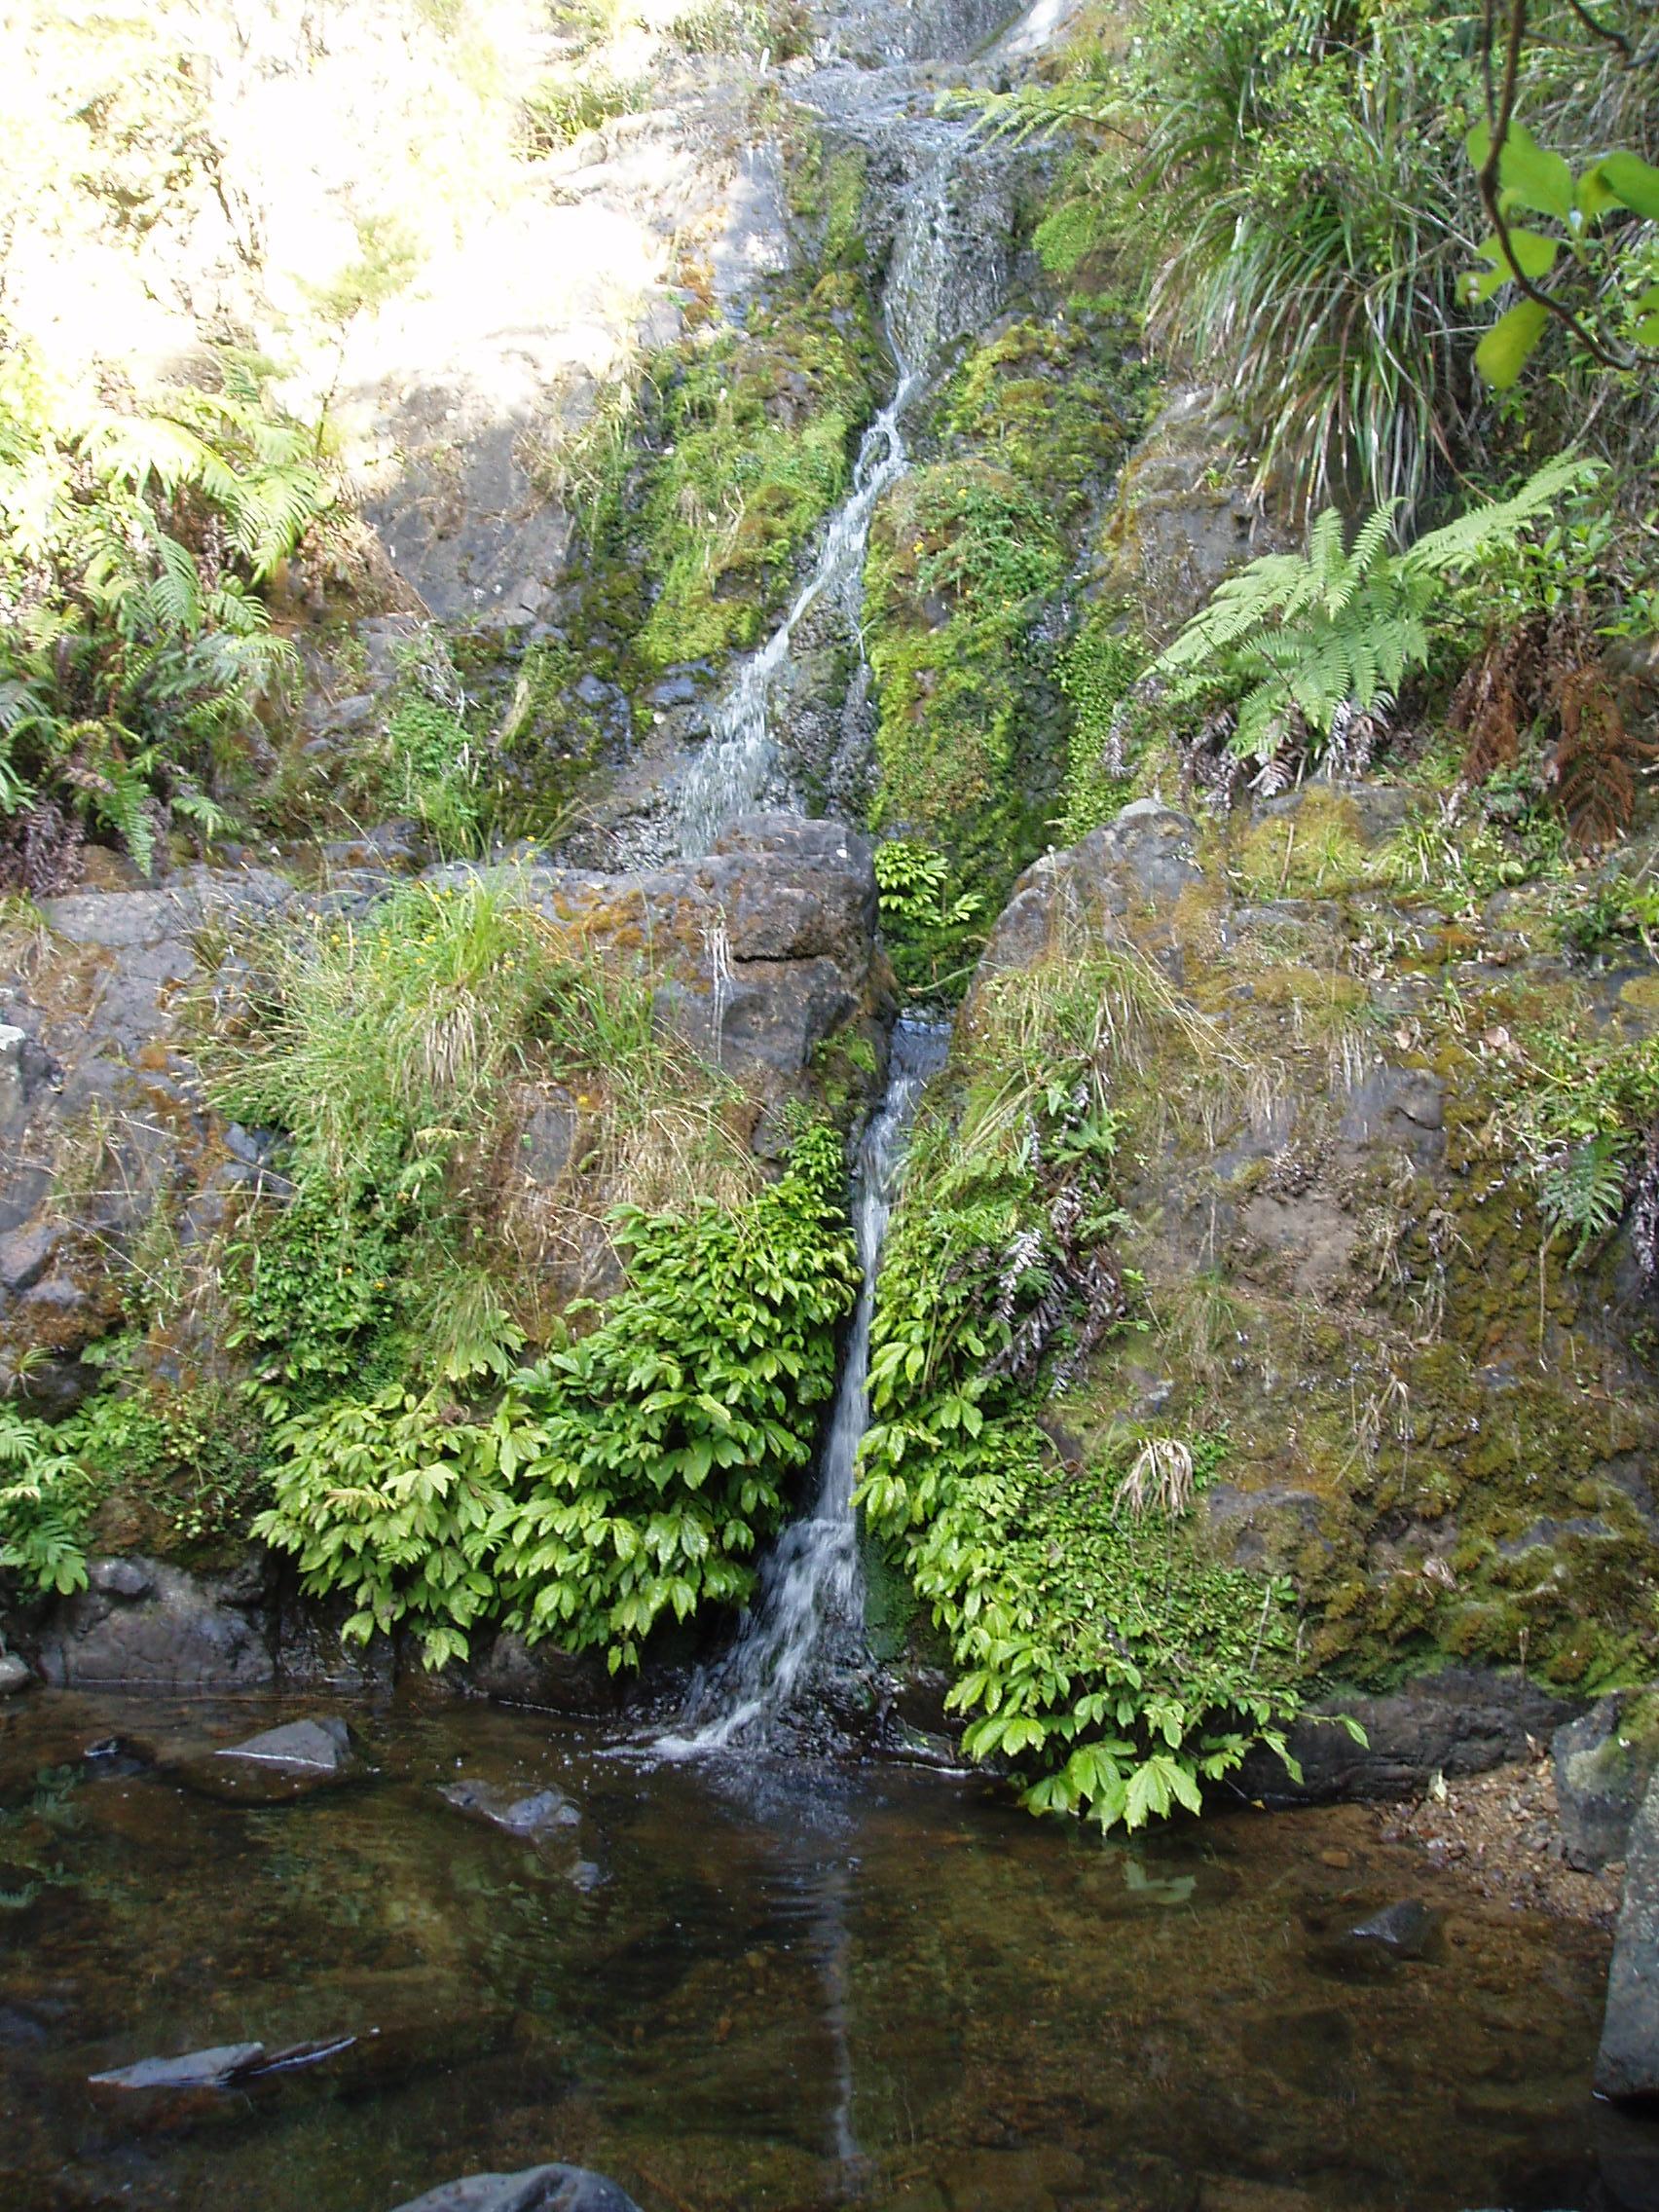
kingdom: Plantae
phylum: Bryophyta
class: Bryopsida
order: Dicranales
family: Fissidentaceae
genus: Fissidens
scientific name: Fissidens rigidulus
